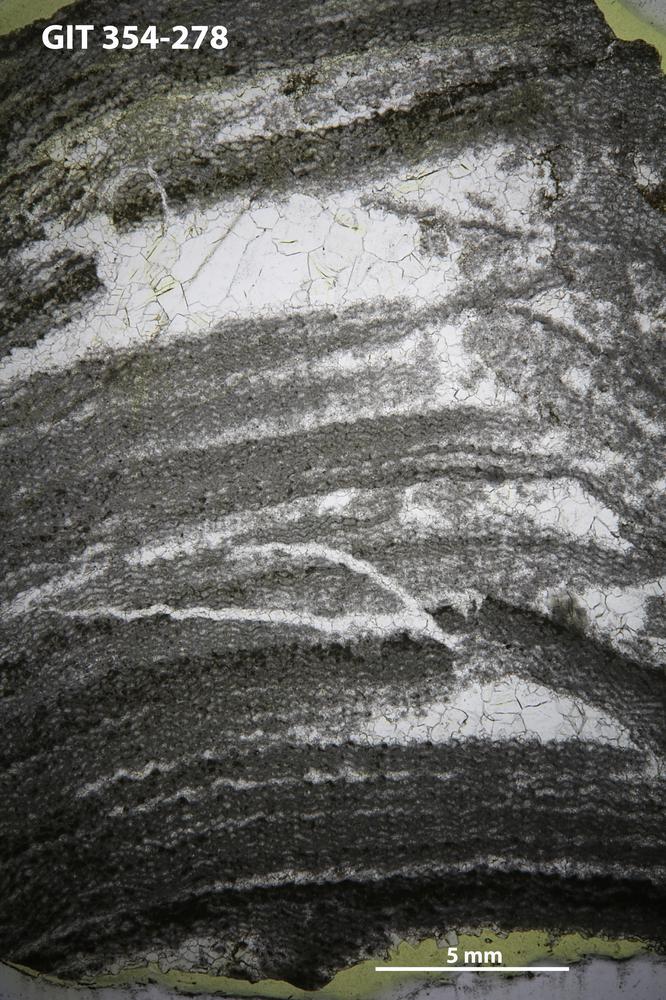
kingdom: Animalia
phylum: Porifera
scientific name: Porifera
